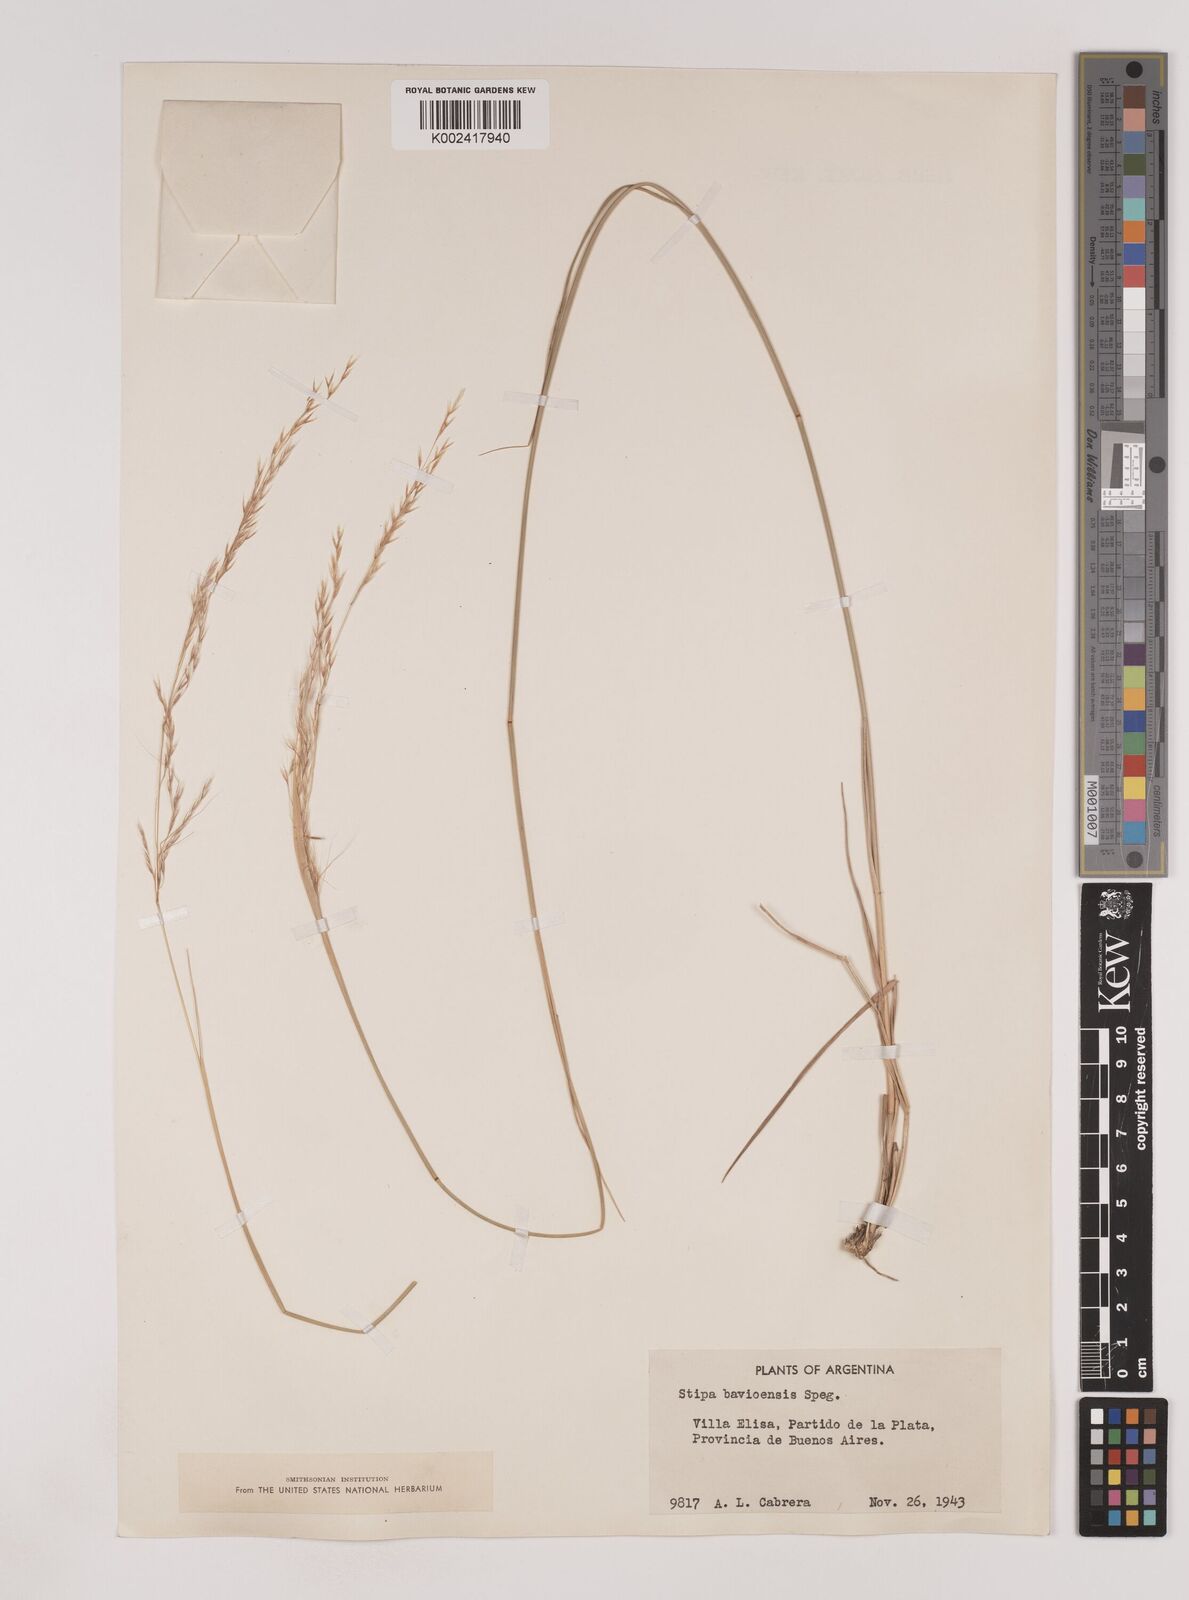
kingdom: Plantae
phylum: Tracheophyta
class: Liliopsida
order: Poales
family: Poaceae
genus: Nassella
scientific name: Nassella philippii
